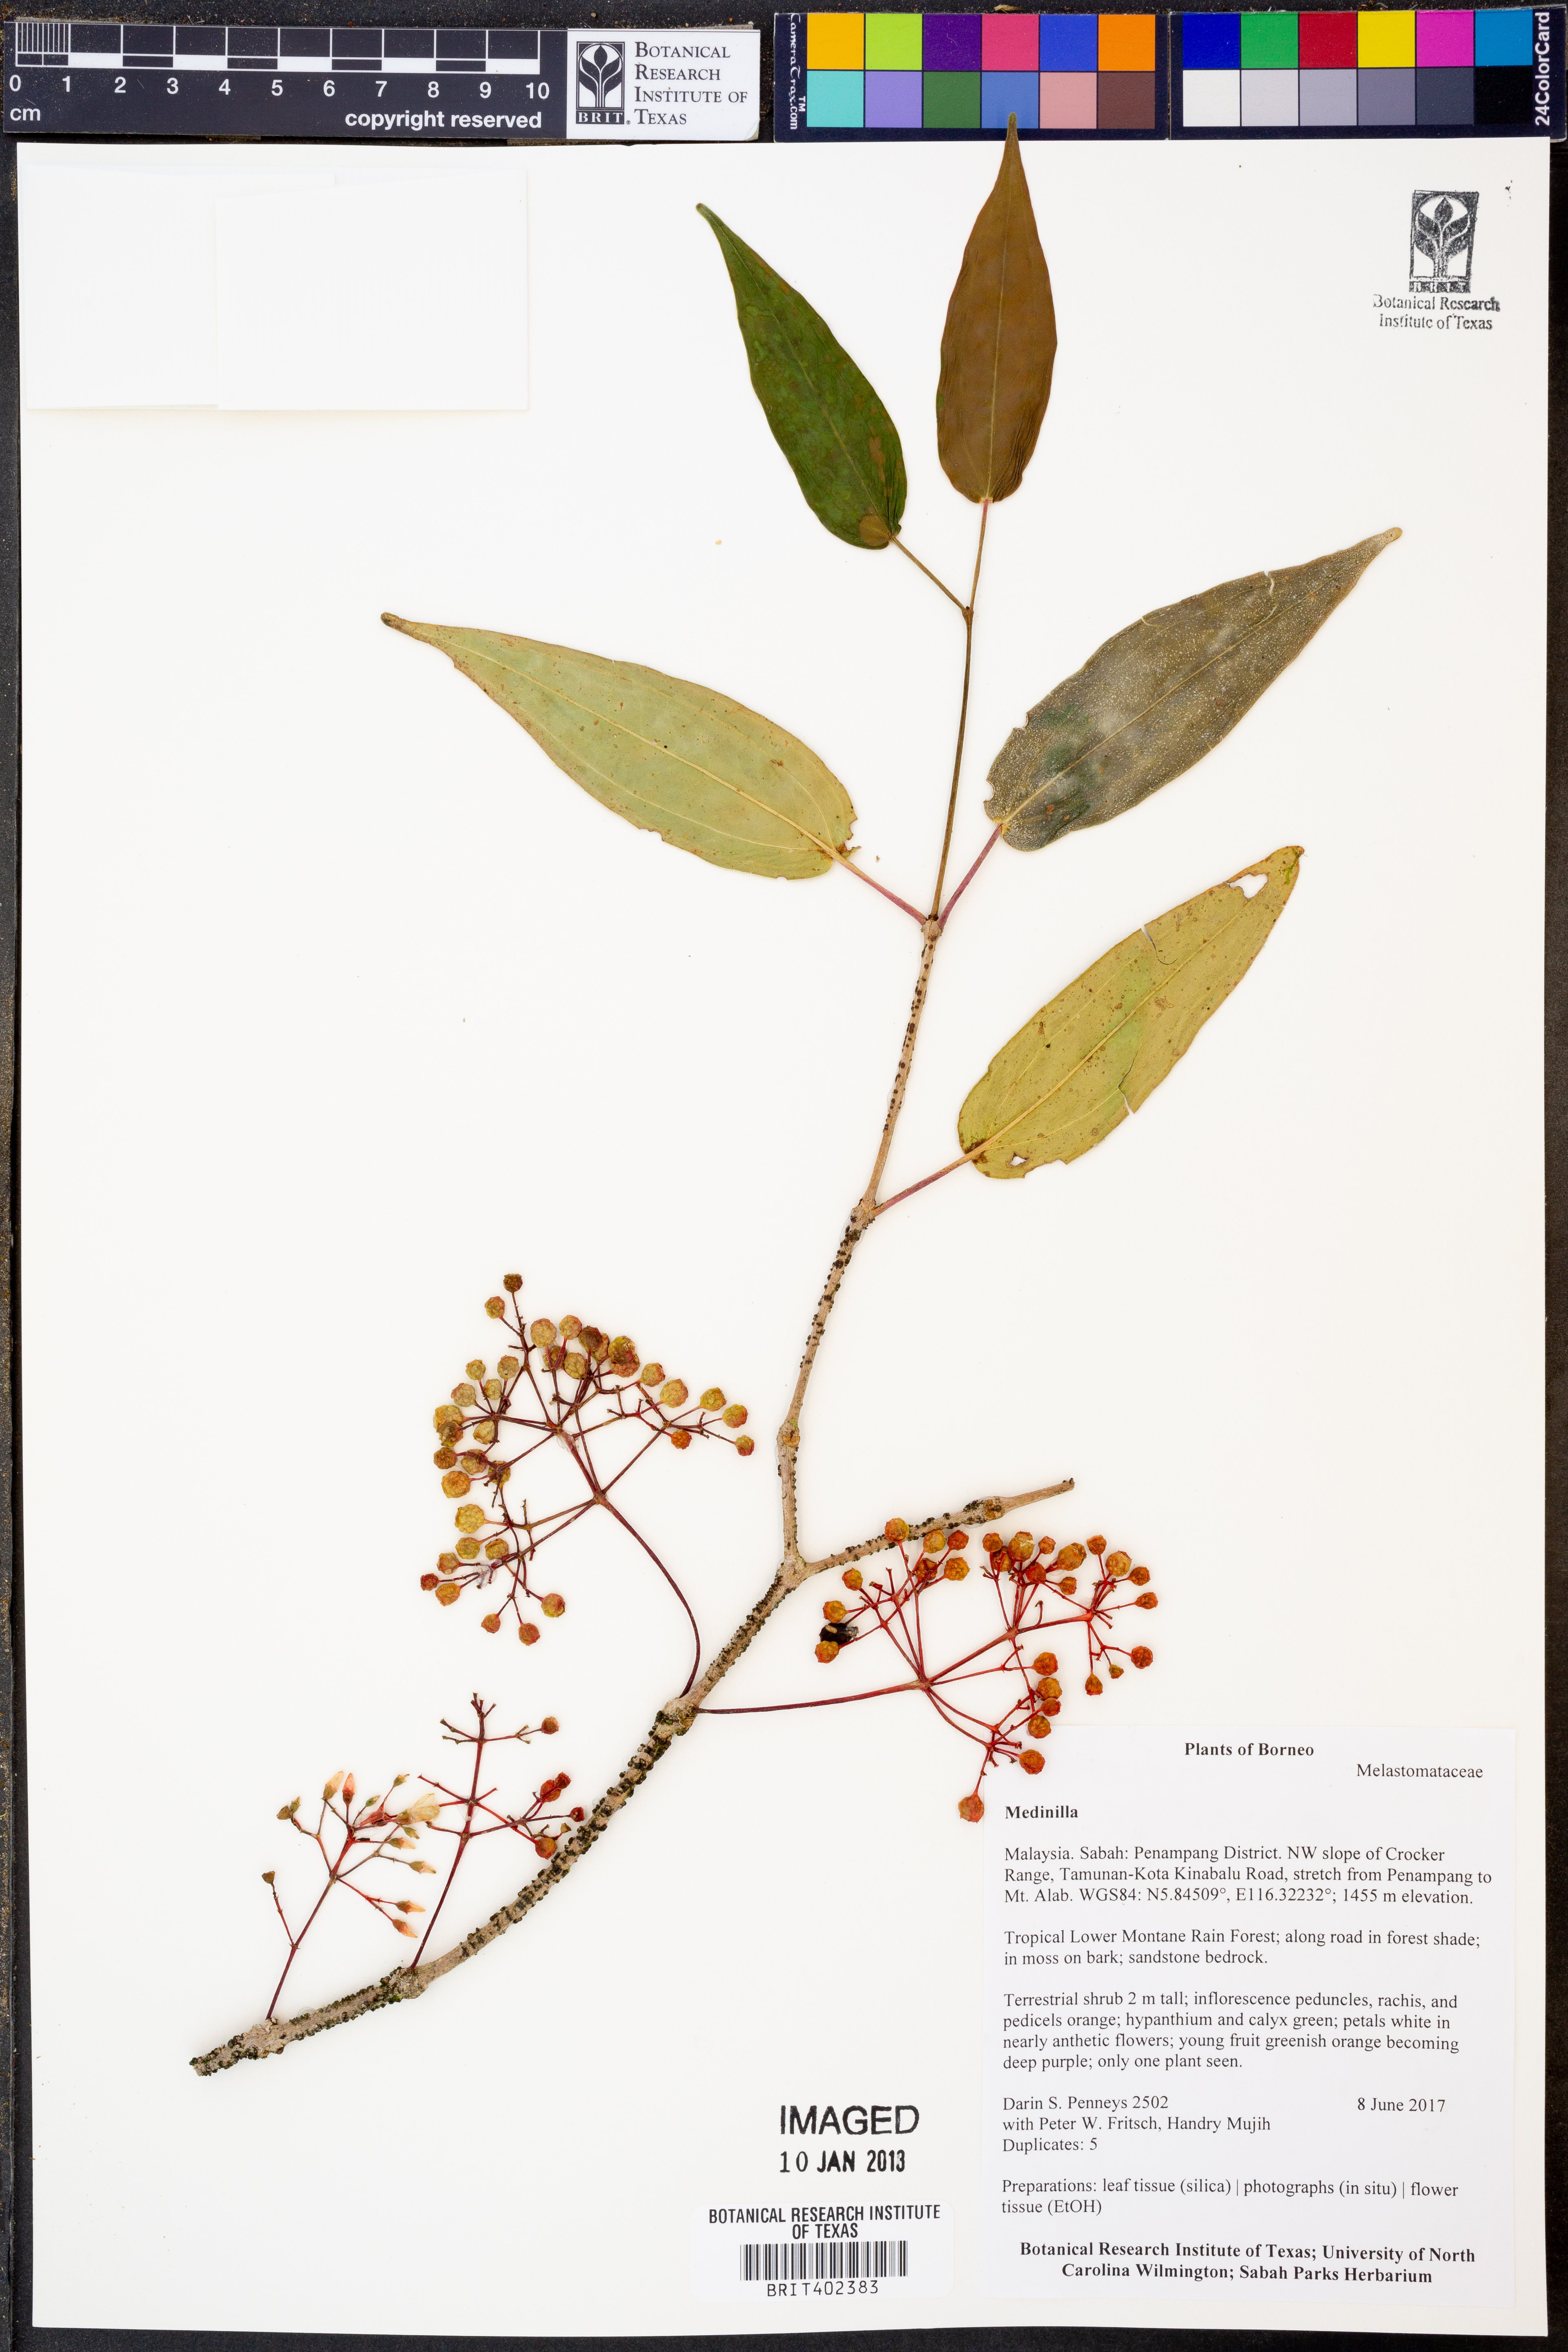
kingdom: Plantae
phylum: Tracheophyta
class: Magnoliopsida
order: Myrtales
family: Melastomataceae
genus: Medinilla
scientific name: Medinilla
